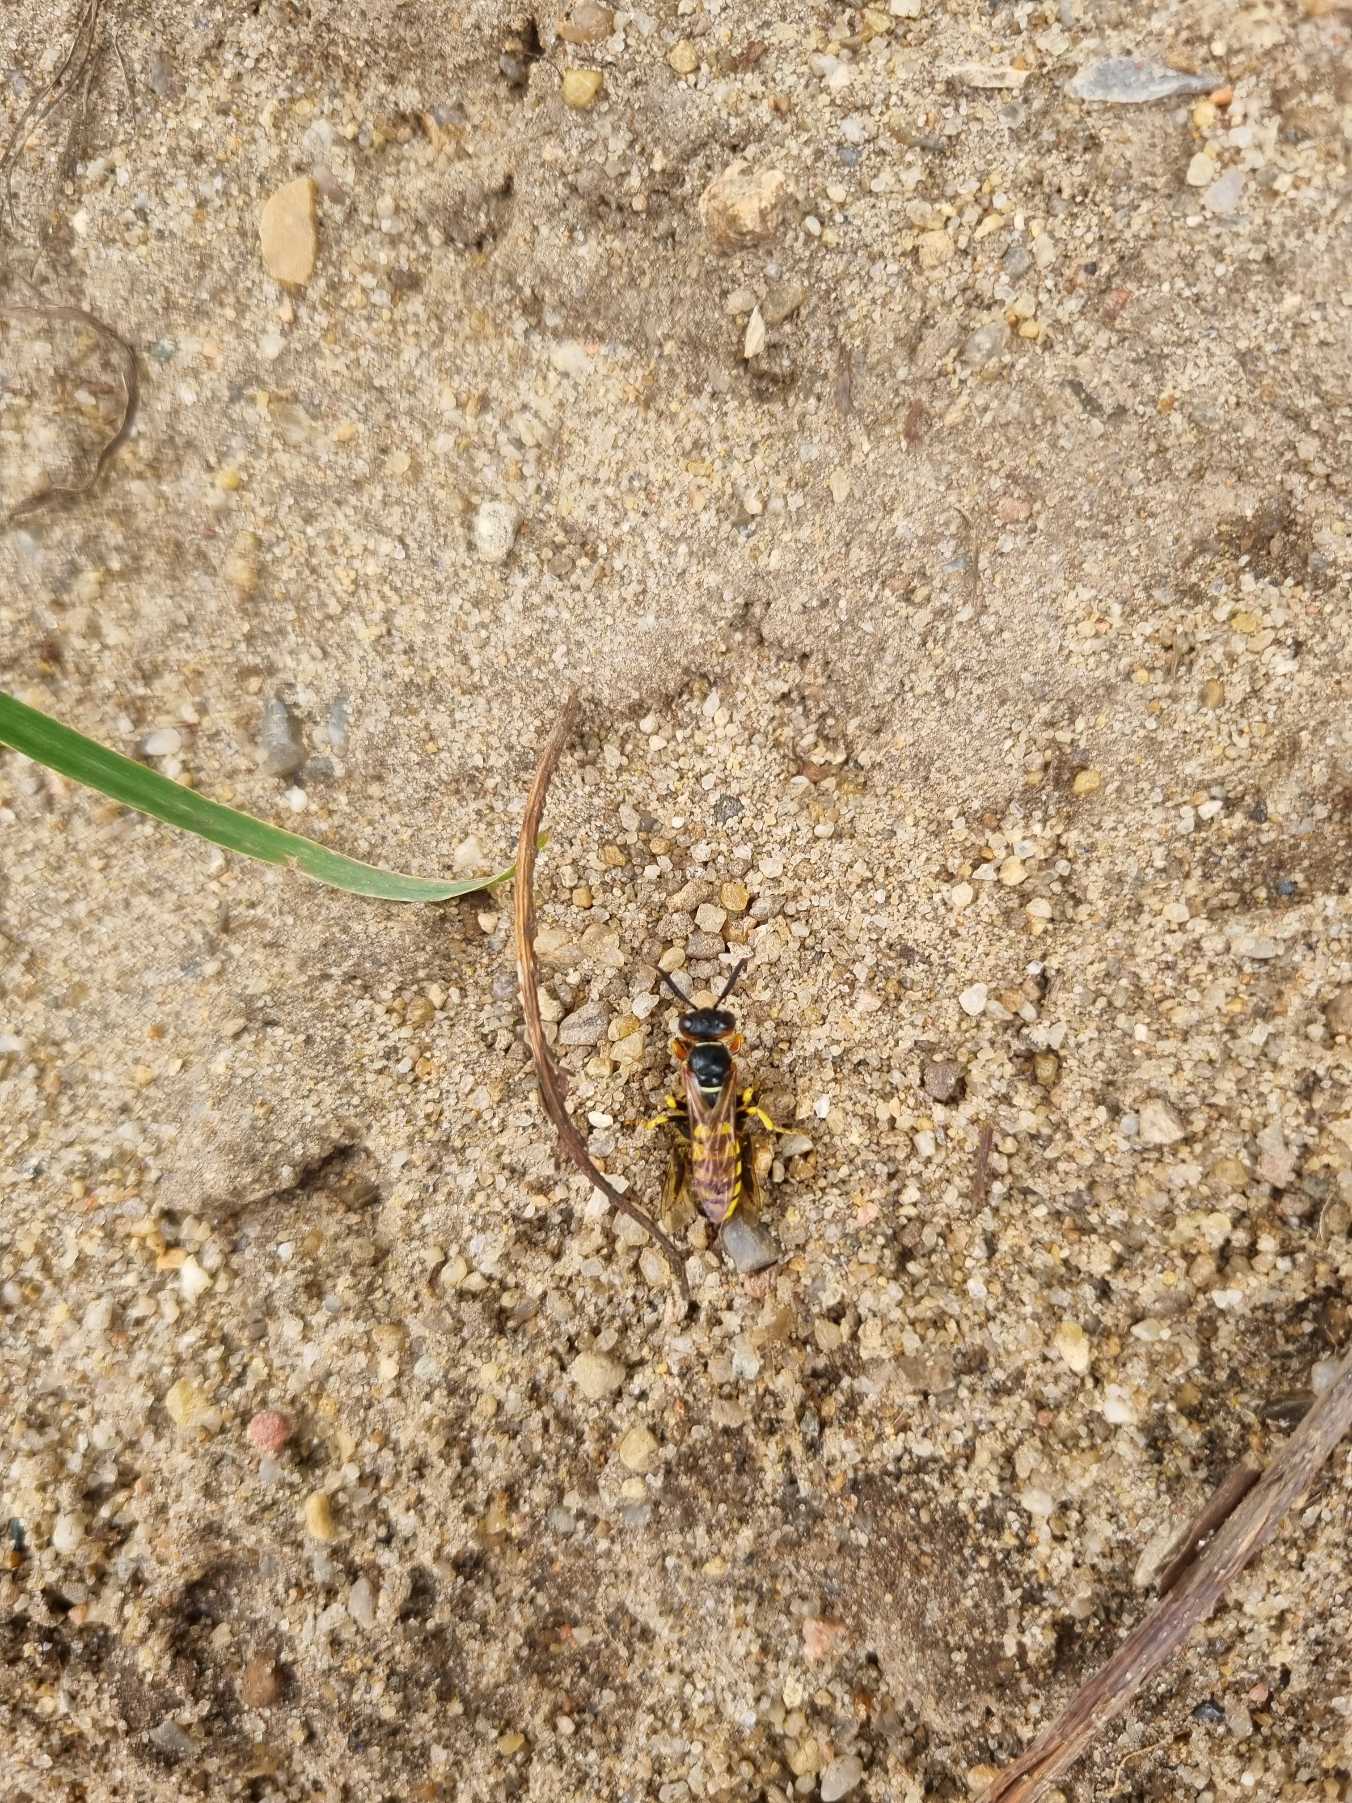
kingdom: Animalia
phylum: Arthropoda
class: Insecta
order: Hymenoptera
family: Crabronidae
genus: Philanthus
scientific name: Philanthus triangulum
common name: Biulv
